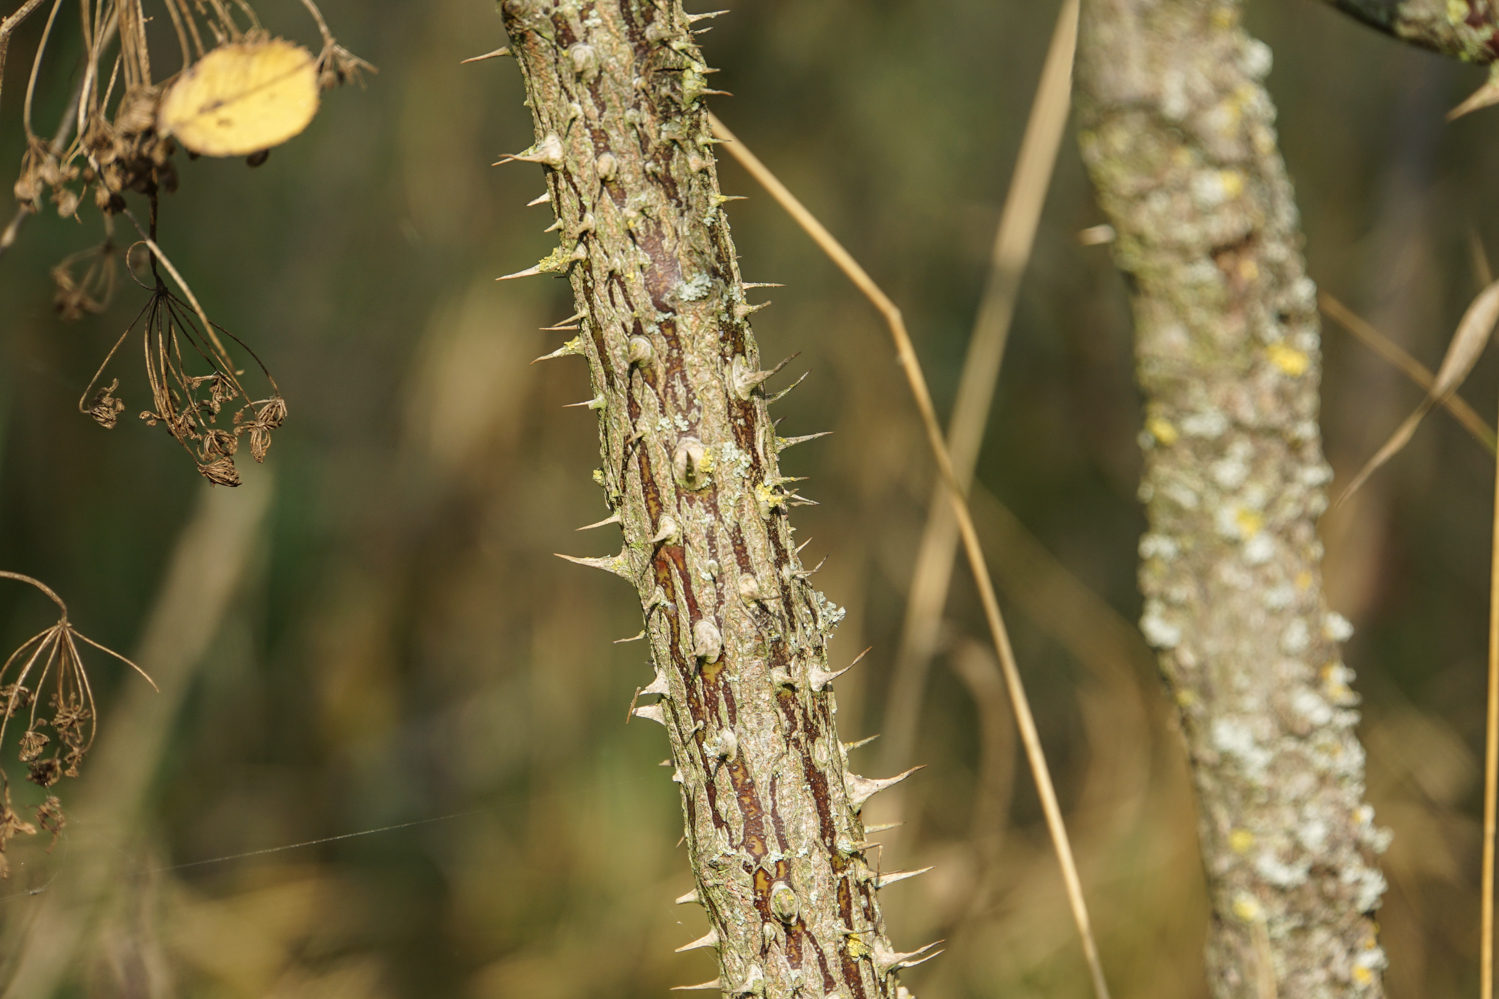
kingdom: Plantae
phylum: Tracheophyta
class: Magnoliopsida
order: Rosales
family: Rosaceae
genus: Rosa
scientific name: Rosa sherardii
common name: Sherard's downy rose
